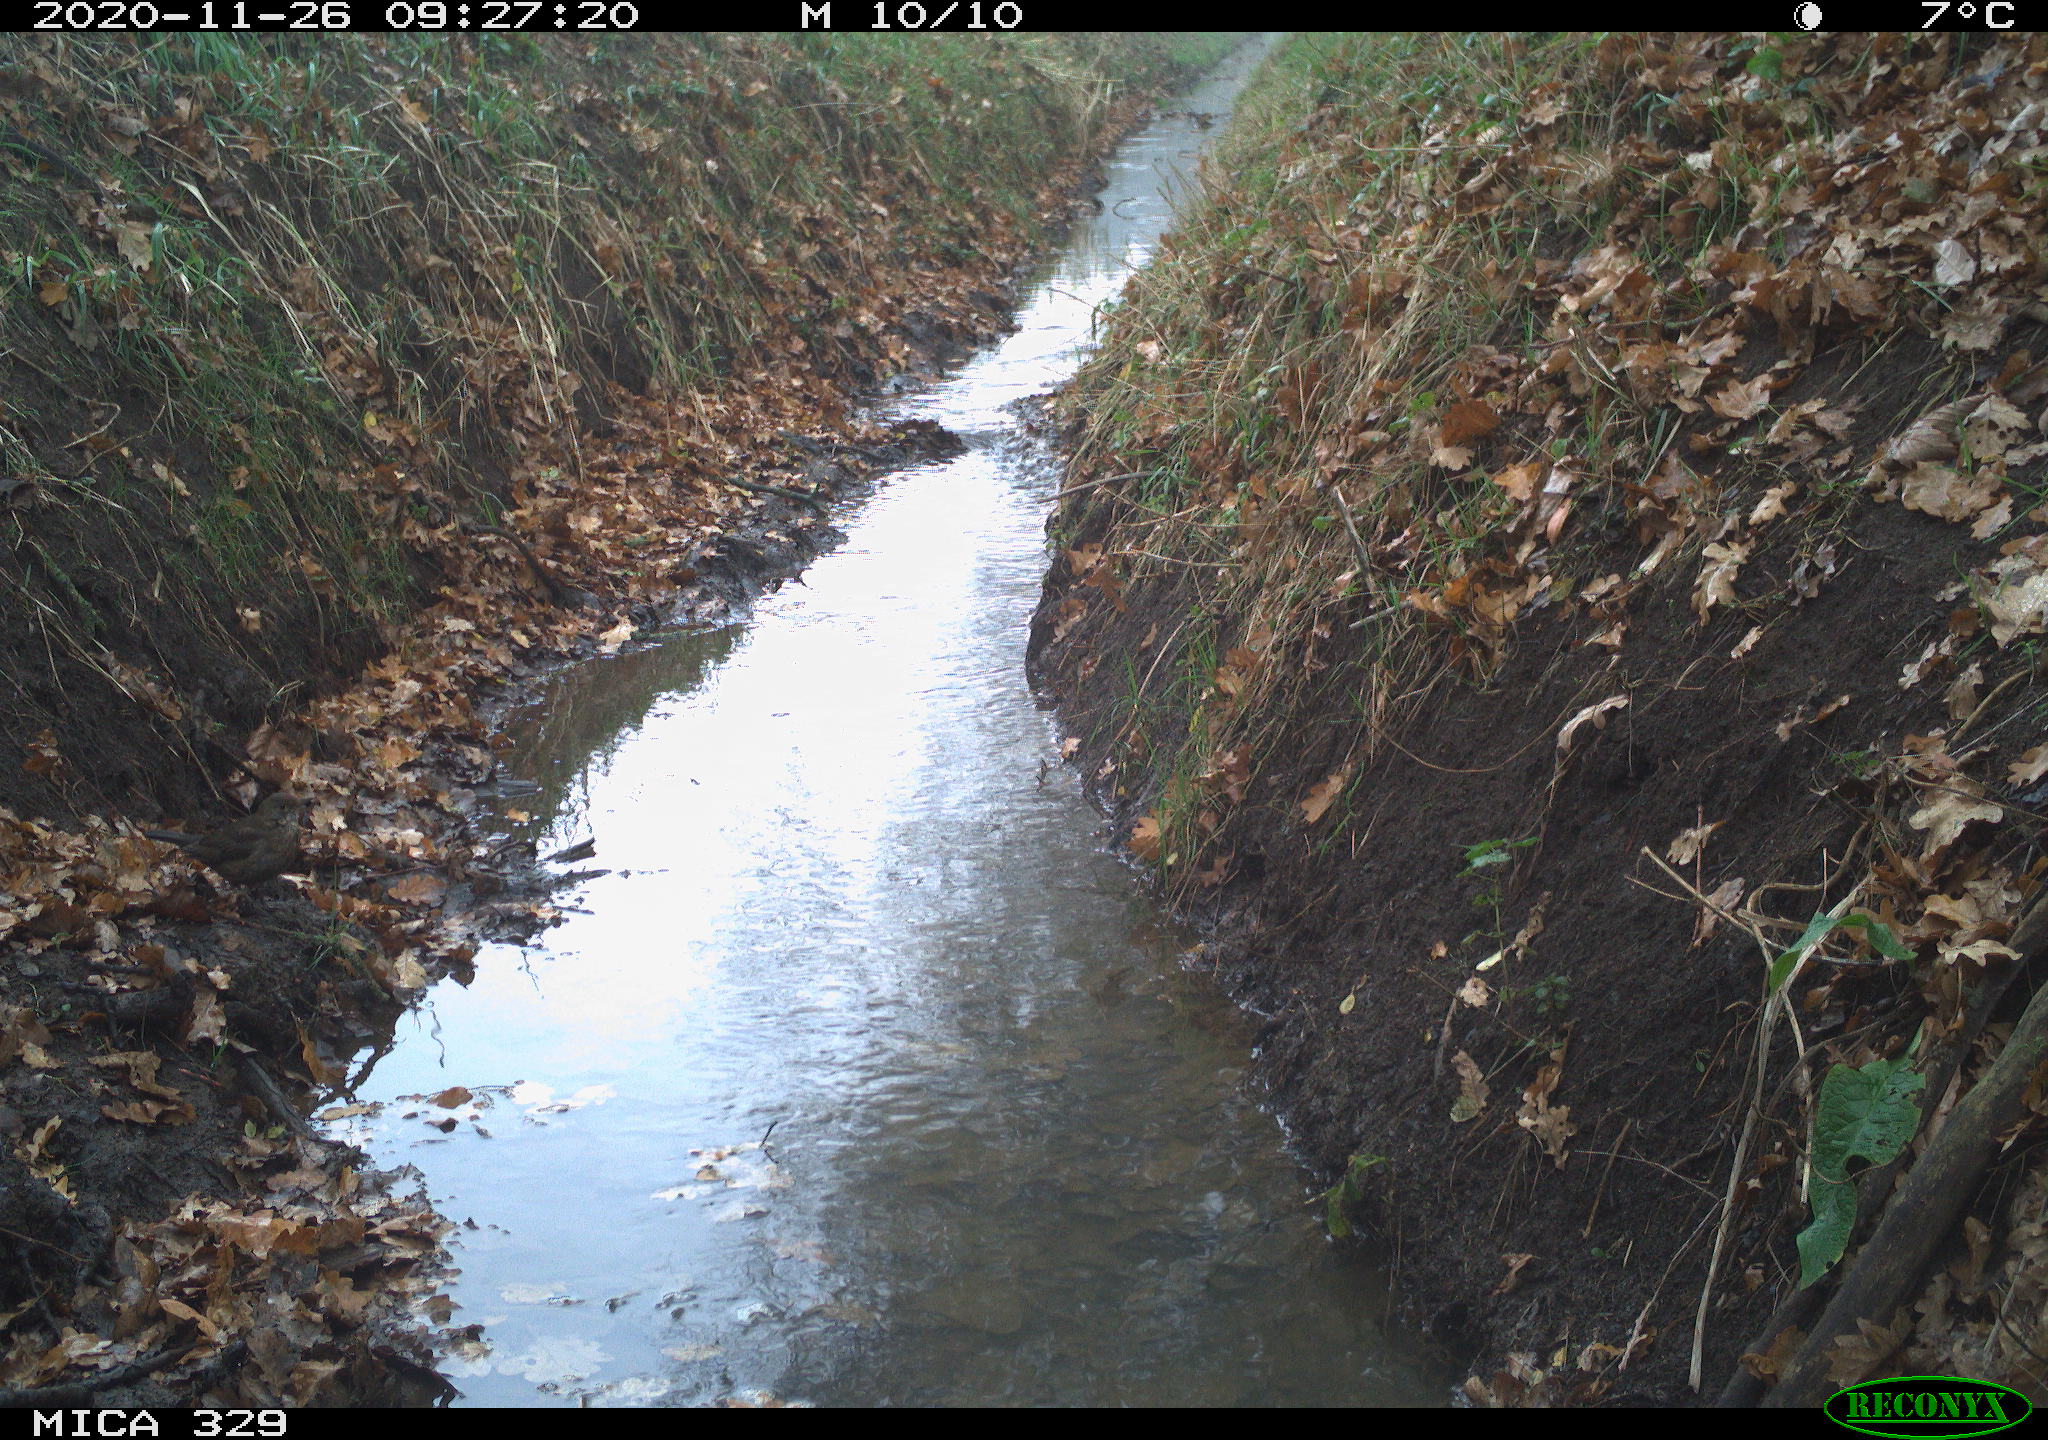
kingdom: Animalia
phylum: Chordata
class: Aves
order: Passeriformes
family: Turdidae
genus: Turdus
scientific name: Turdus philomelos
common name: Song thrush
